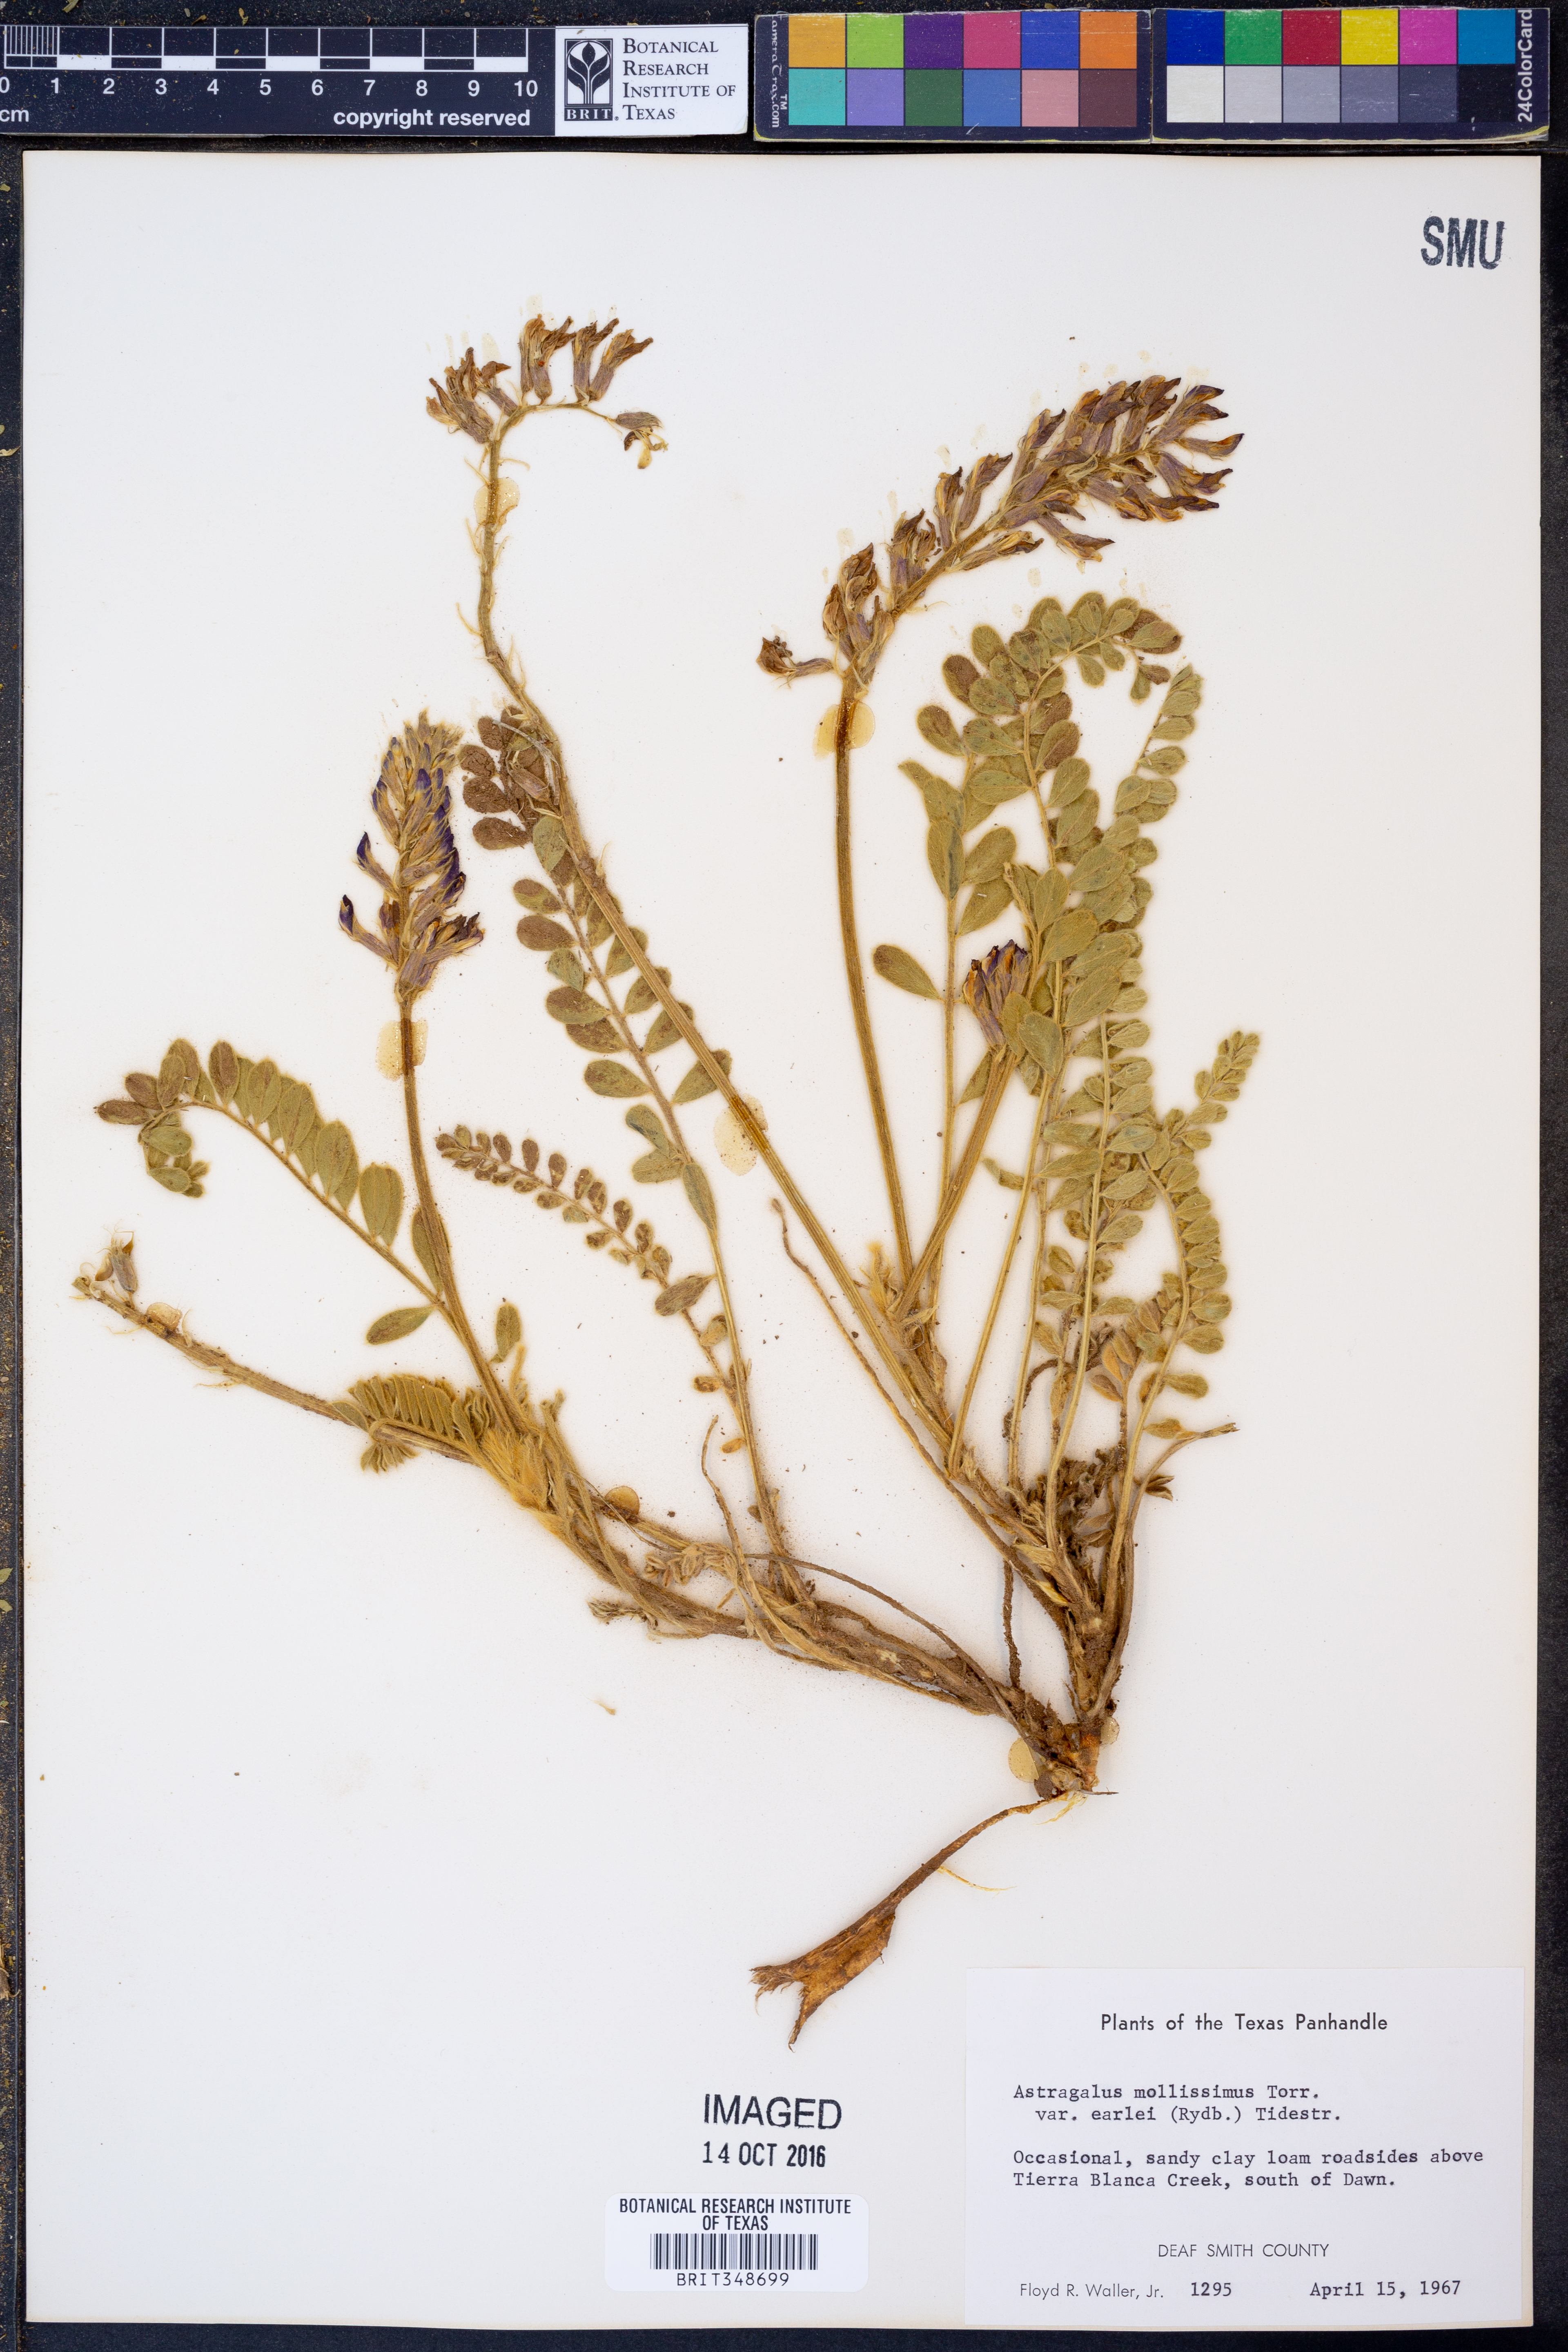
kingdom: Plantae
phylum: Tracheophyta
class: Magnoliopsida
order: Fabales
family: Fabaceae
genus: Astragalus
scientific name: Astragalus mollissimus
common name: Woolly locoweed
